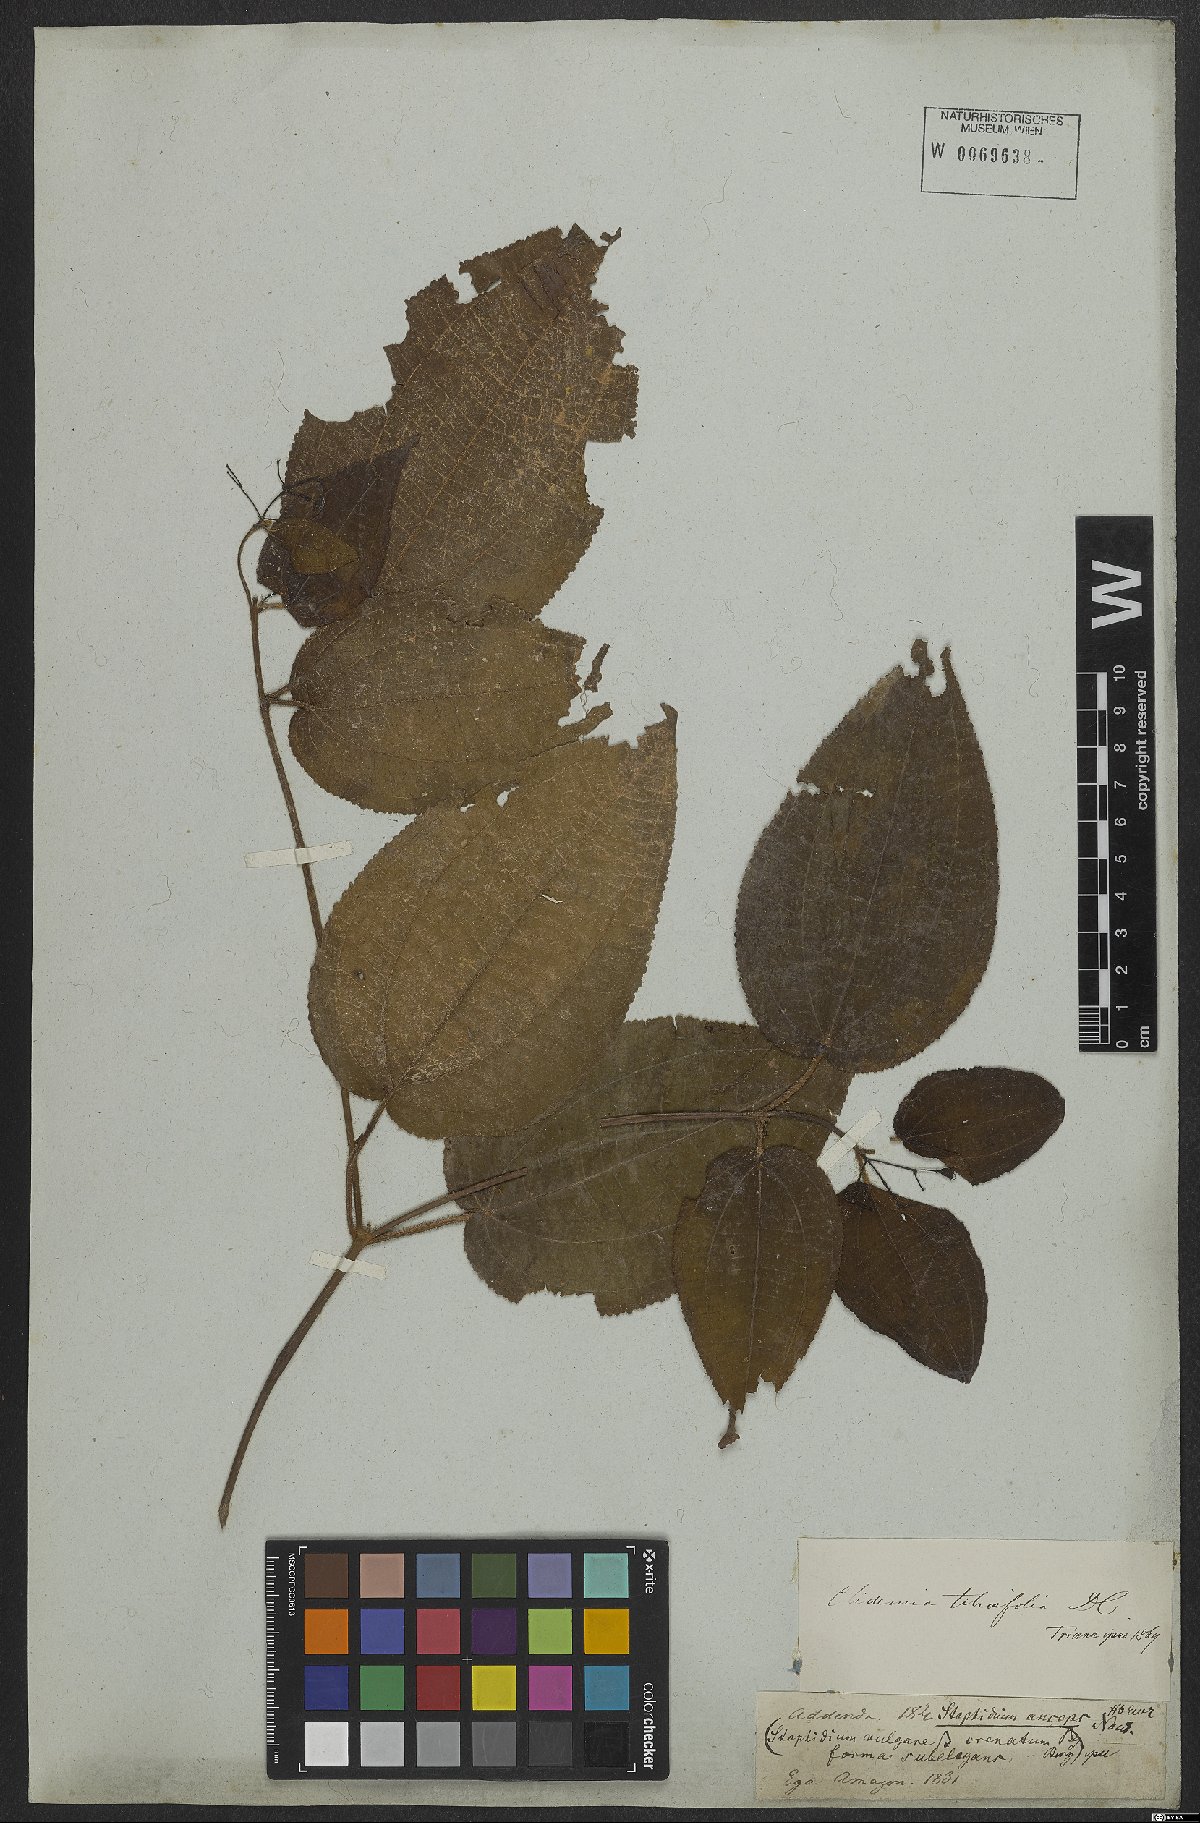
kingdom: Plantae
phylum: Tracheophyta
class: Magnoliopsida
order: Myrtales
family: Melastomataceae
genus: Miconia
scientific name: Miconia crenata
